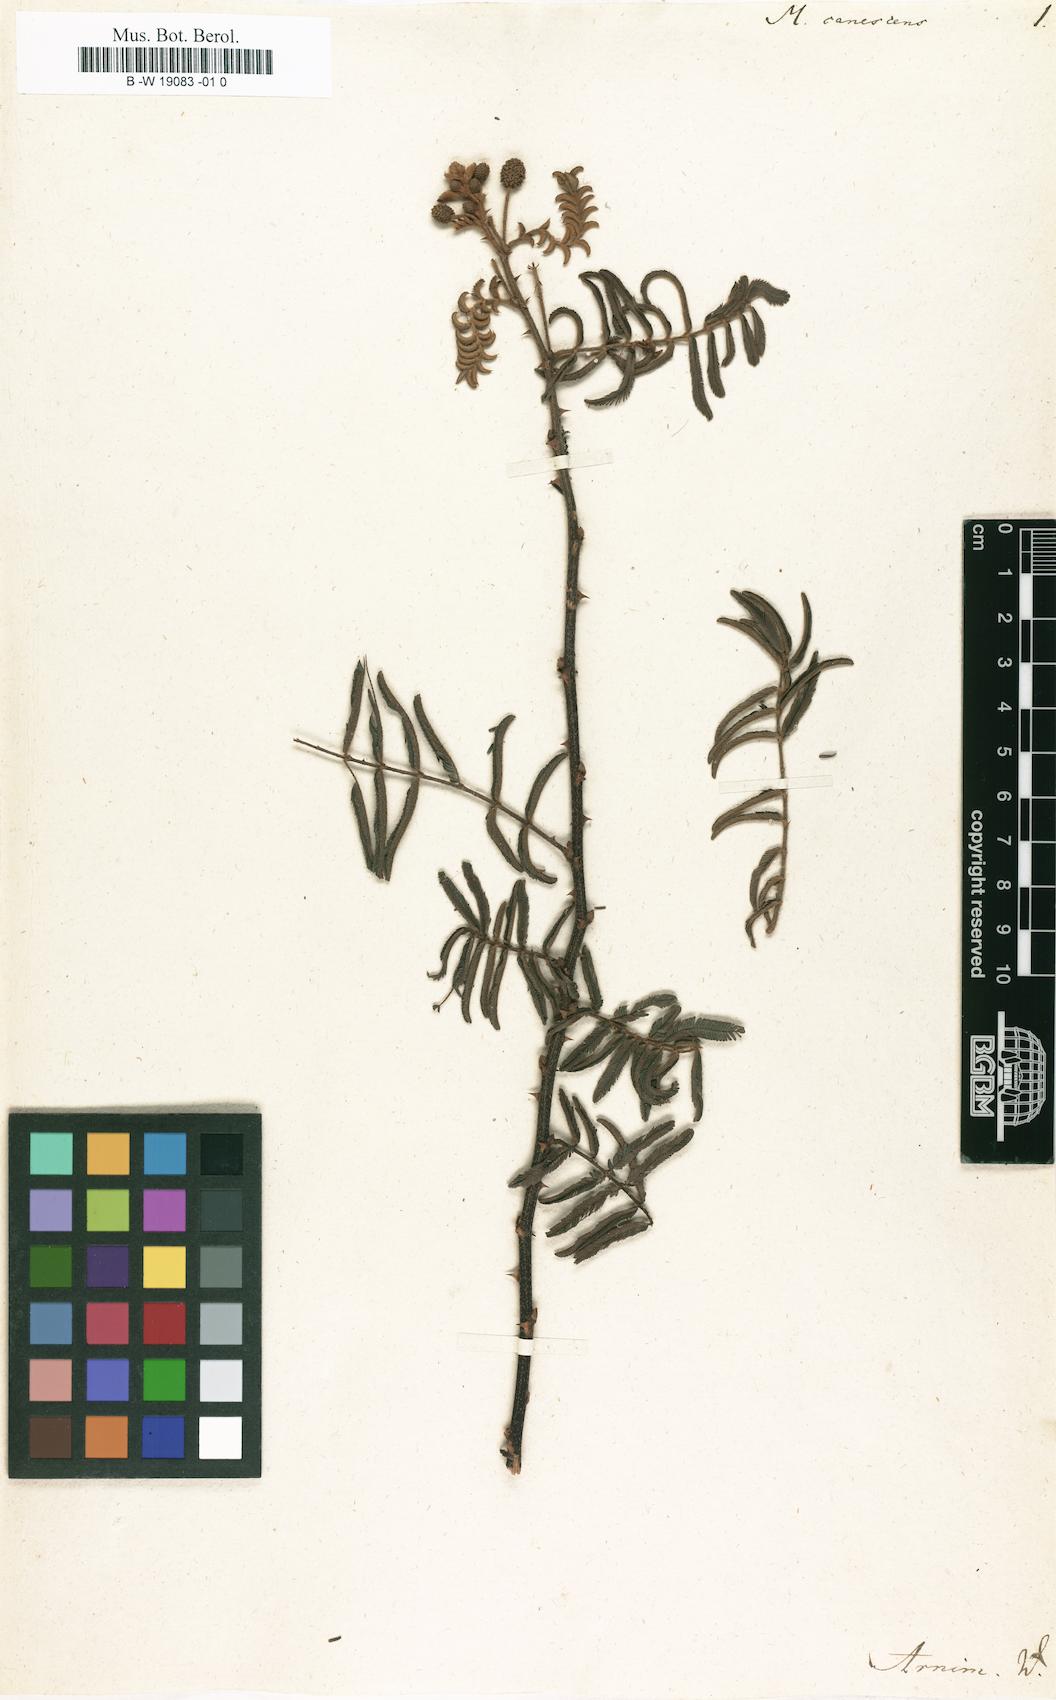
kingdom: Plantae
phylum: Tracheophyta
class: Magnoliopsida
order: Fabales
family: Fabaceae
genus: Mimosa
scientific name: Mimosa pigra
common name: Black mimosa
